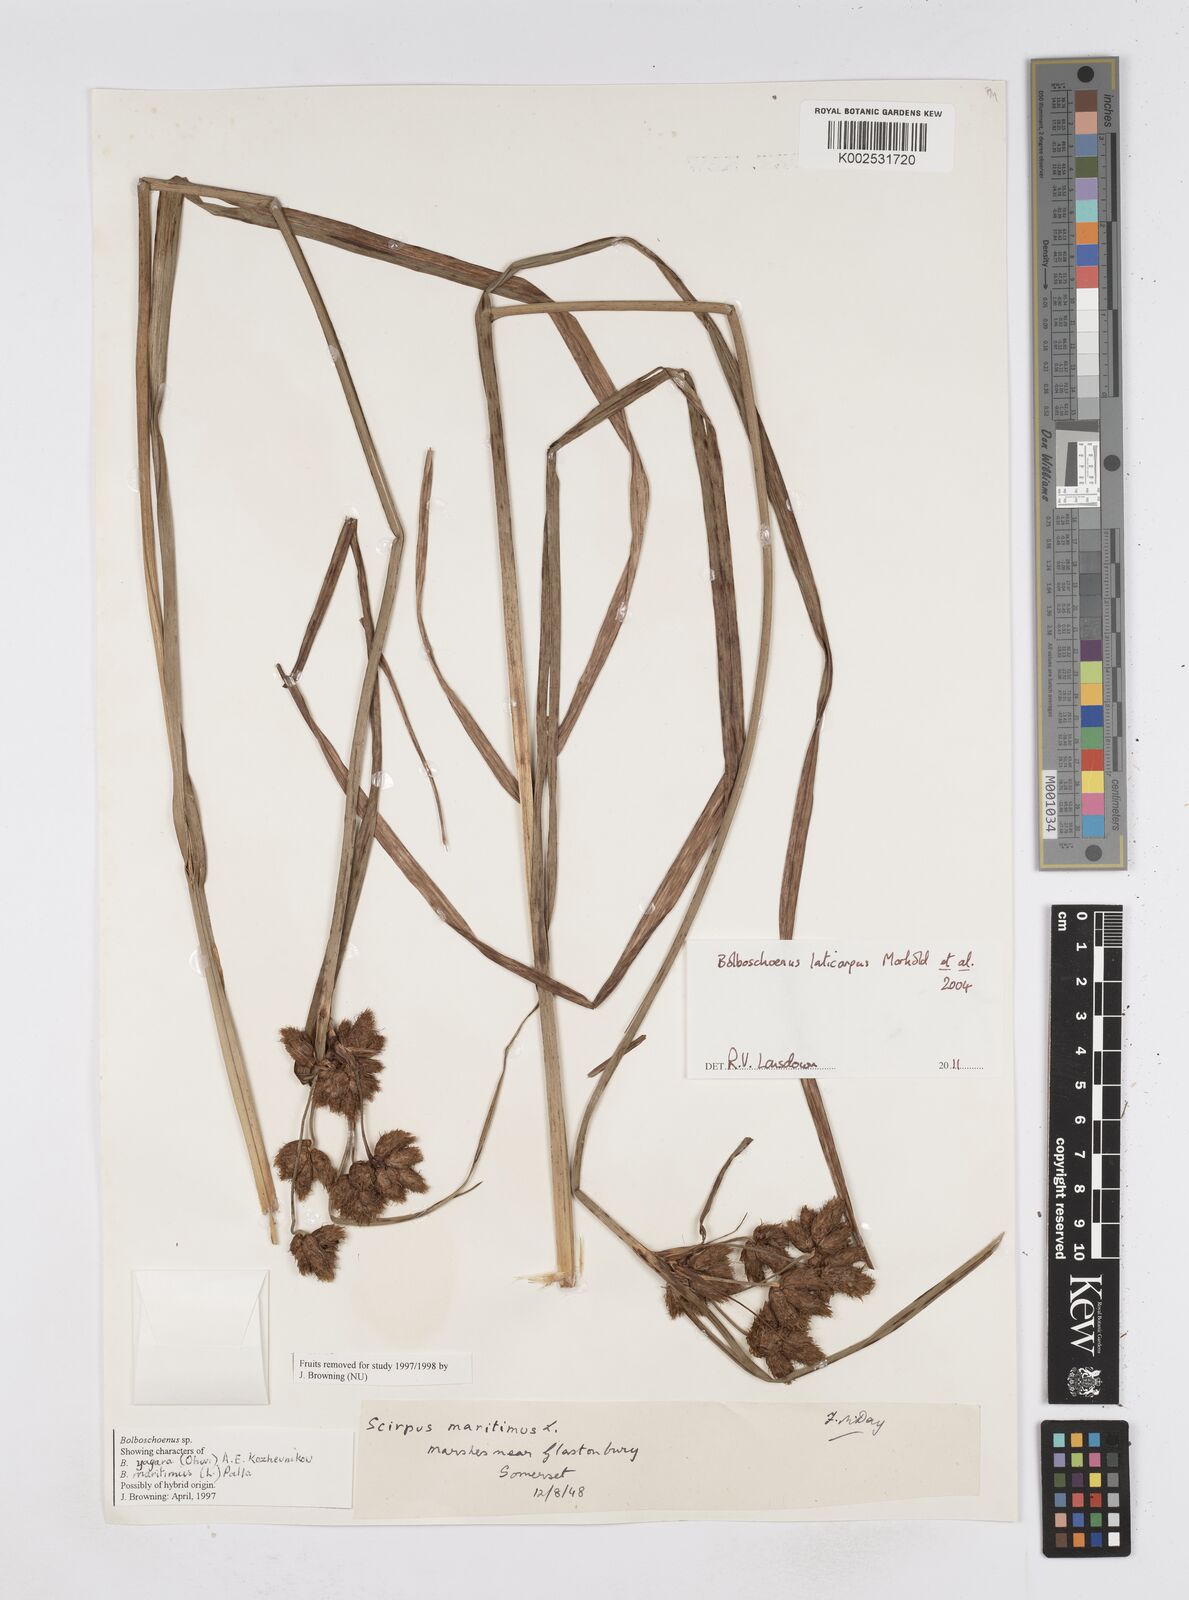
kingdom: Plantae
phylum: Tracheophyta
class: Liliopsida
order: Poales
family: Cyperaceae
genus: Bolboschoenus
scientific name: Bolboschoenus laticarpus
